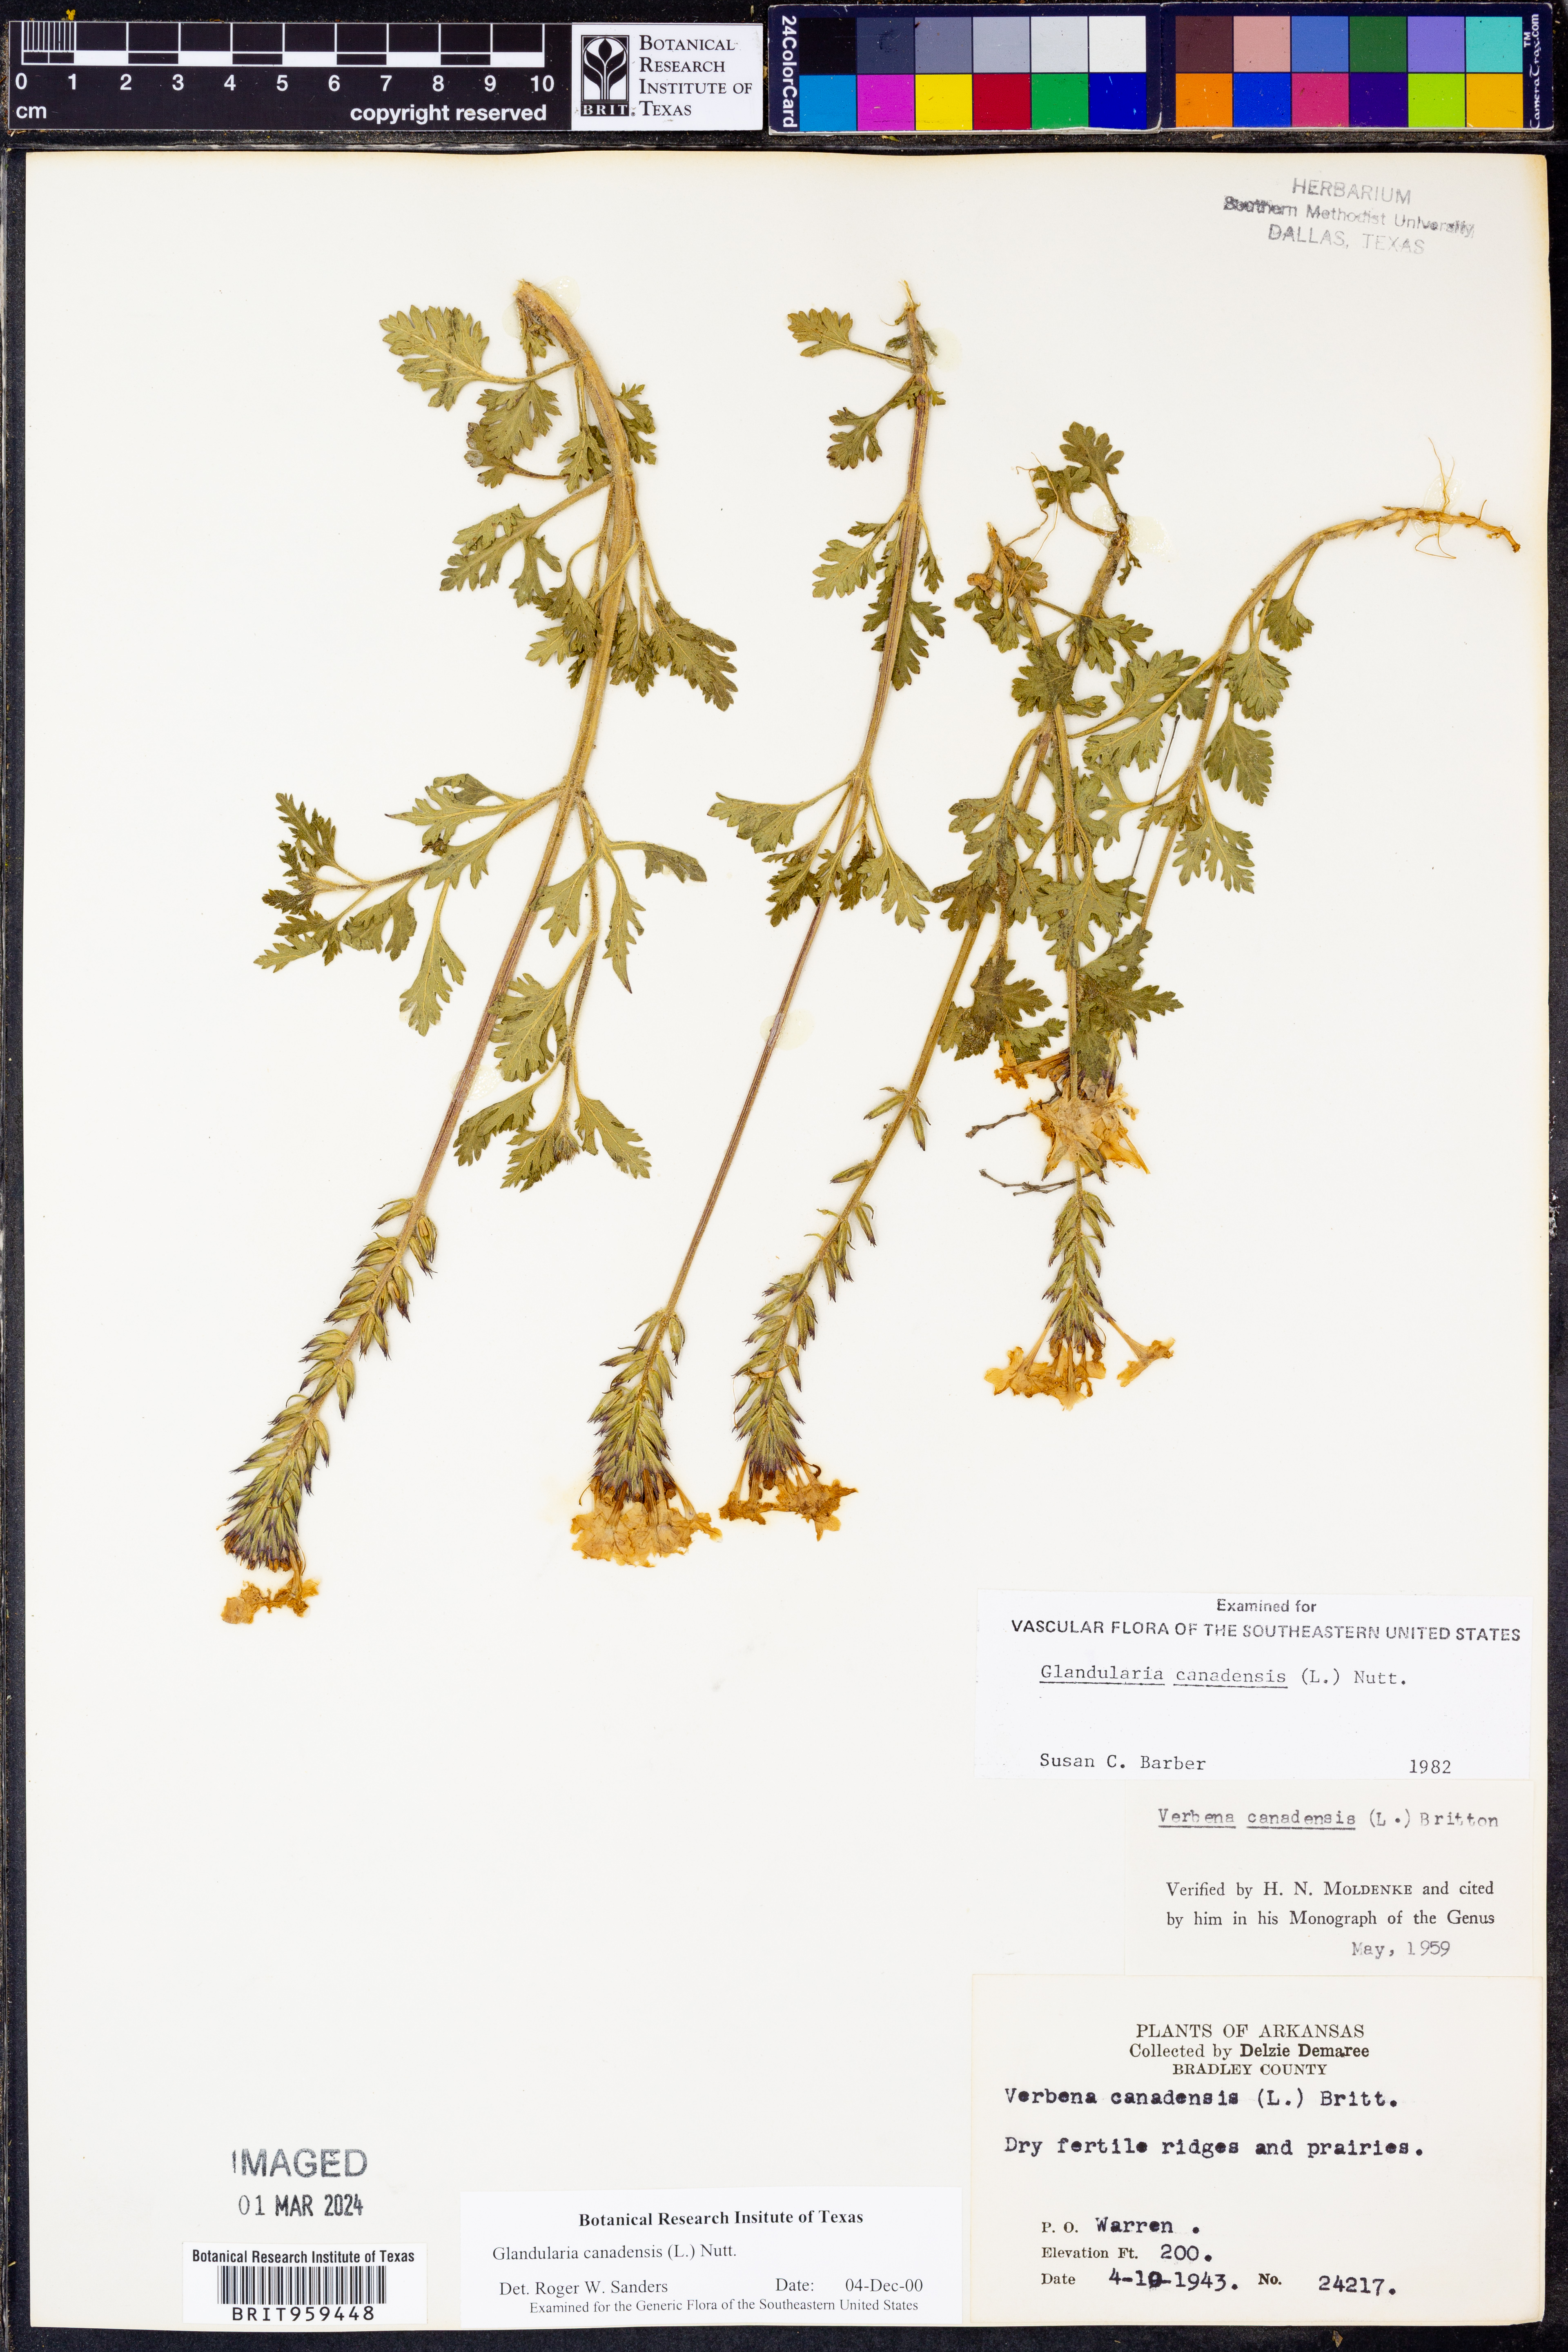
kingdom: Plantae
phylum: Tracheophyta
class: Magnoliopsida
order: Lamiales
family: Verbenaceae
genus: Verbena
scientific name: Verbena canadensis
